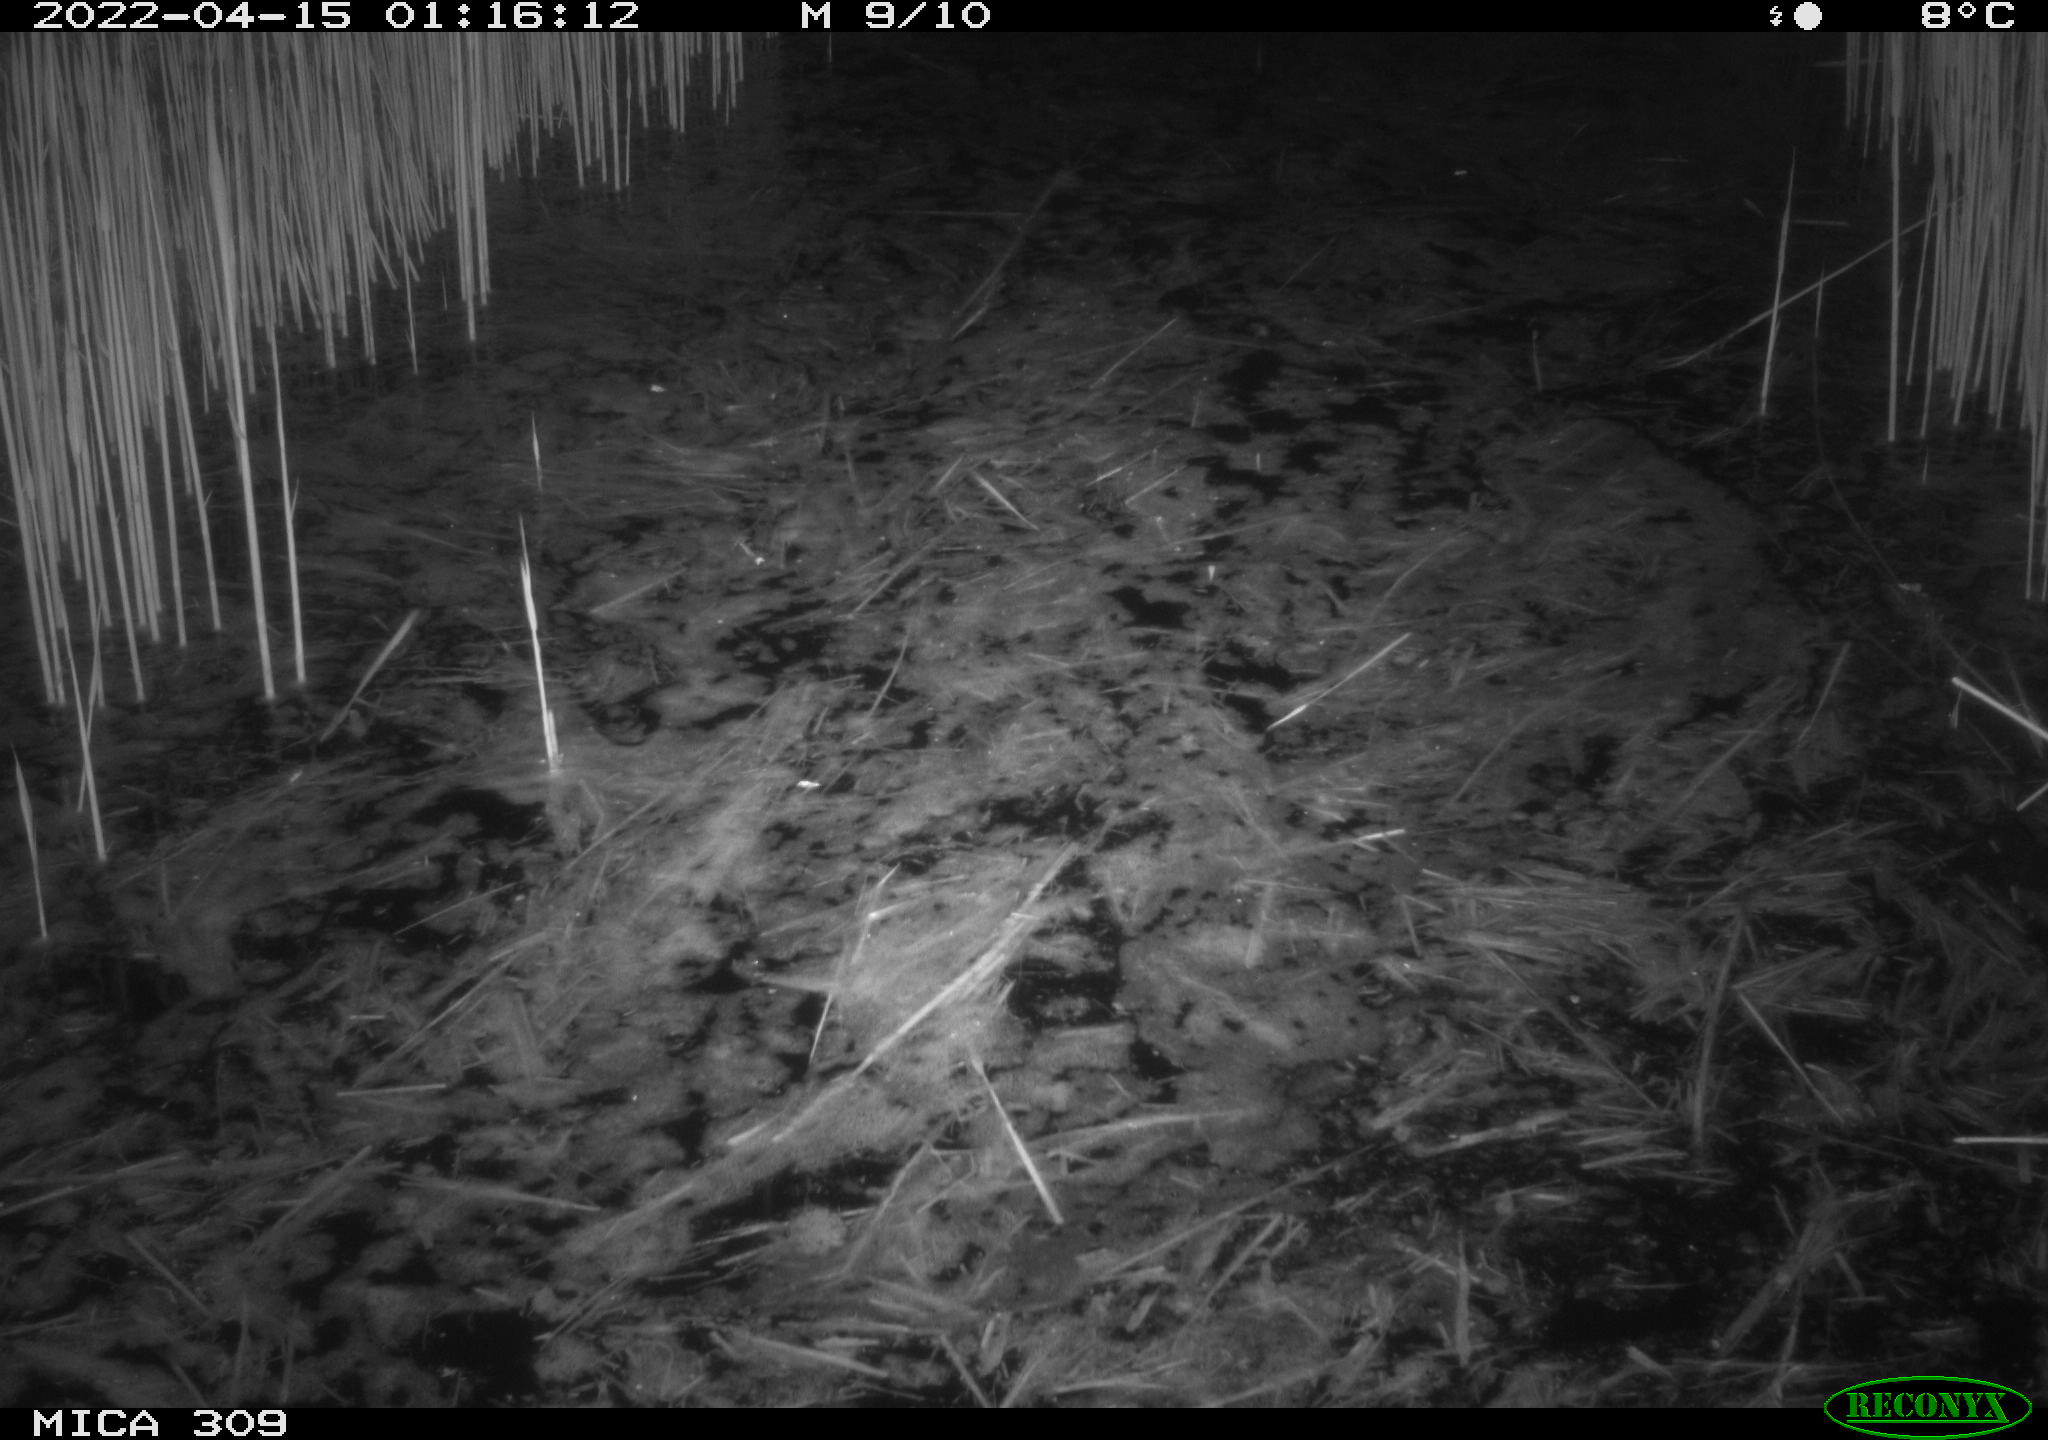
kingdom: Animalia
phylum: Chordata
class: Aves
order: Anseriformes
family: Anatidae
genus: Anas
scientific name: Anas platyrhynchos
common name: Mallard
